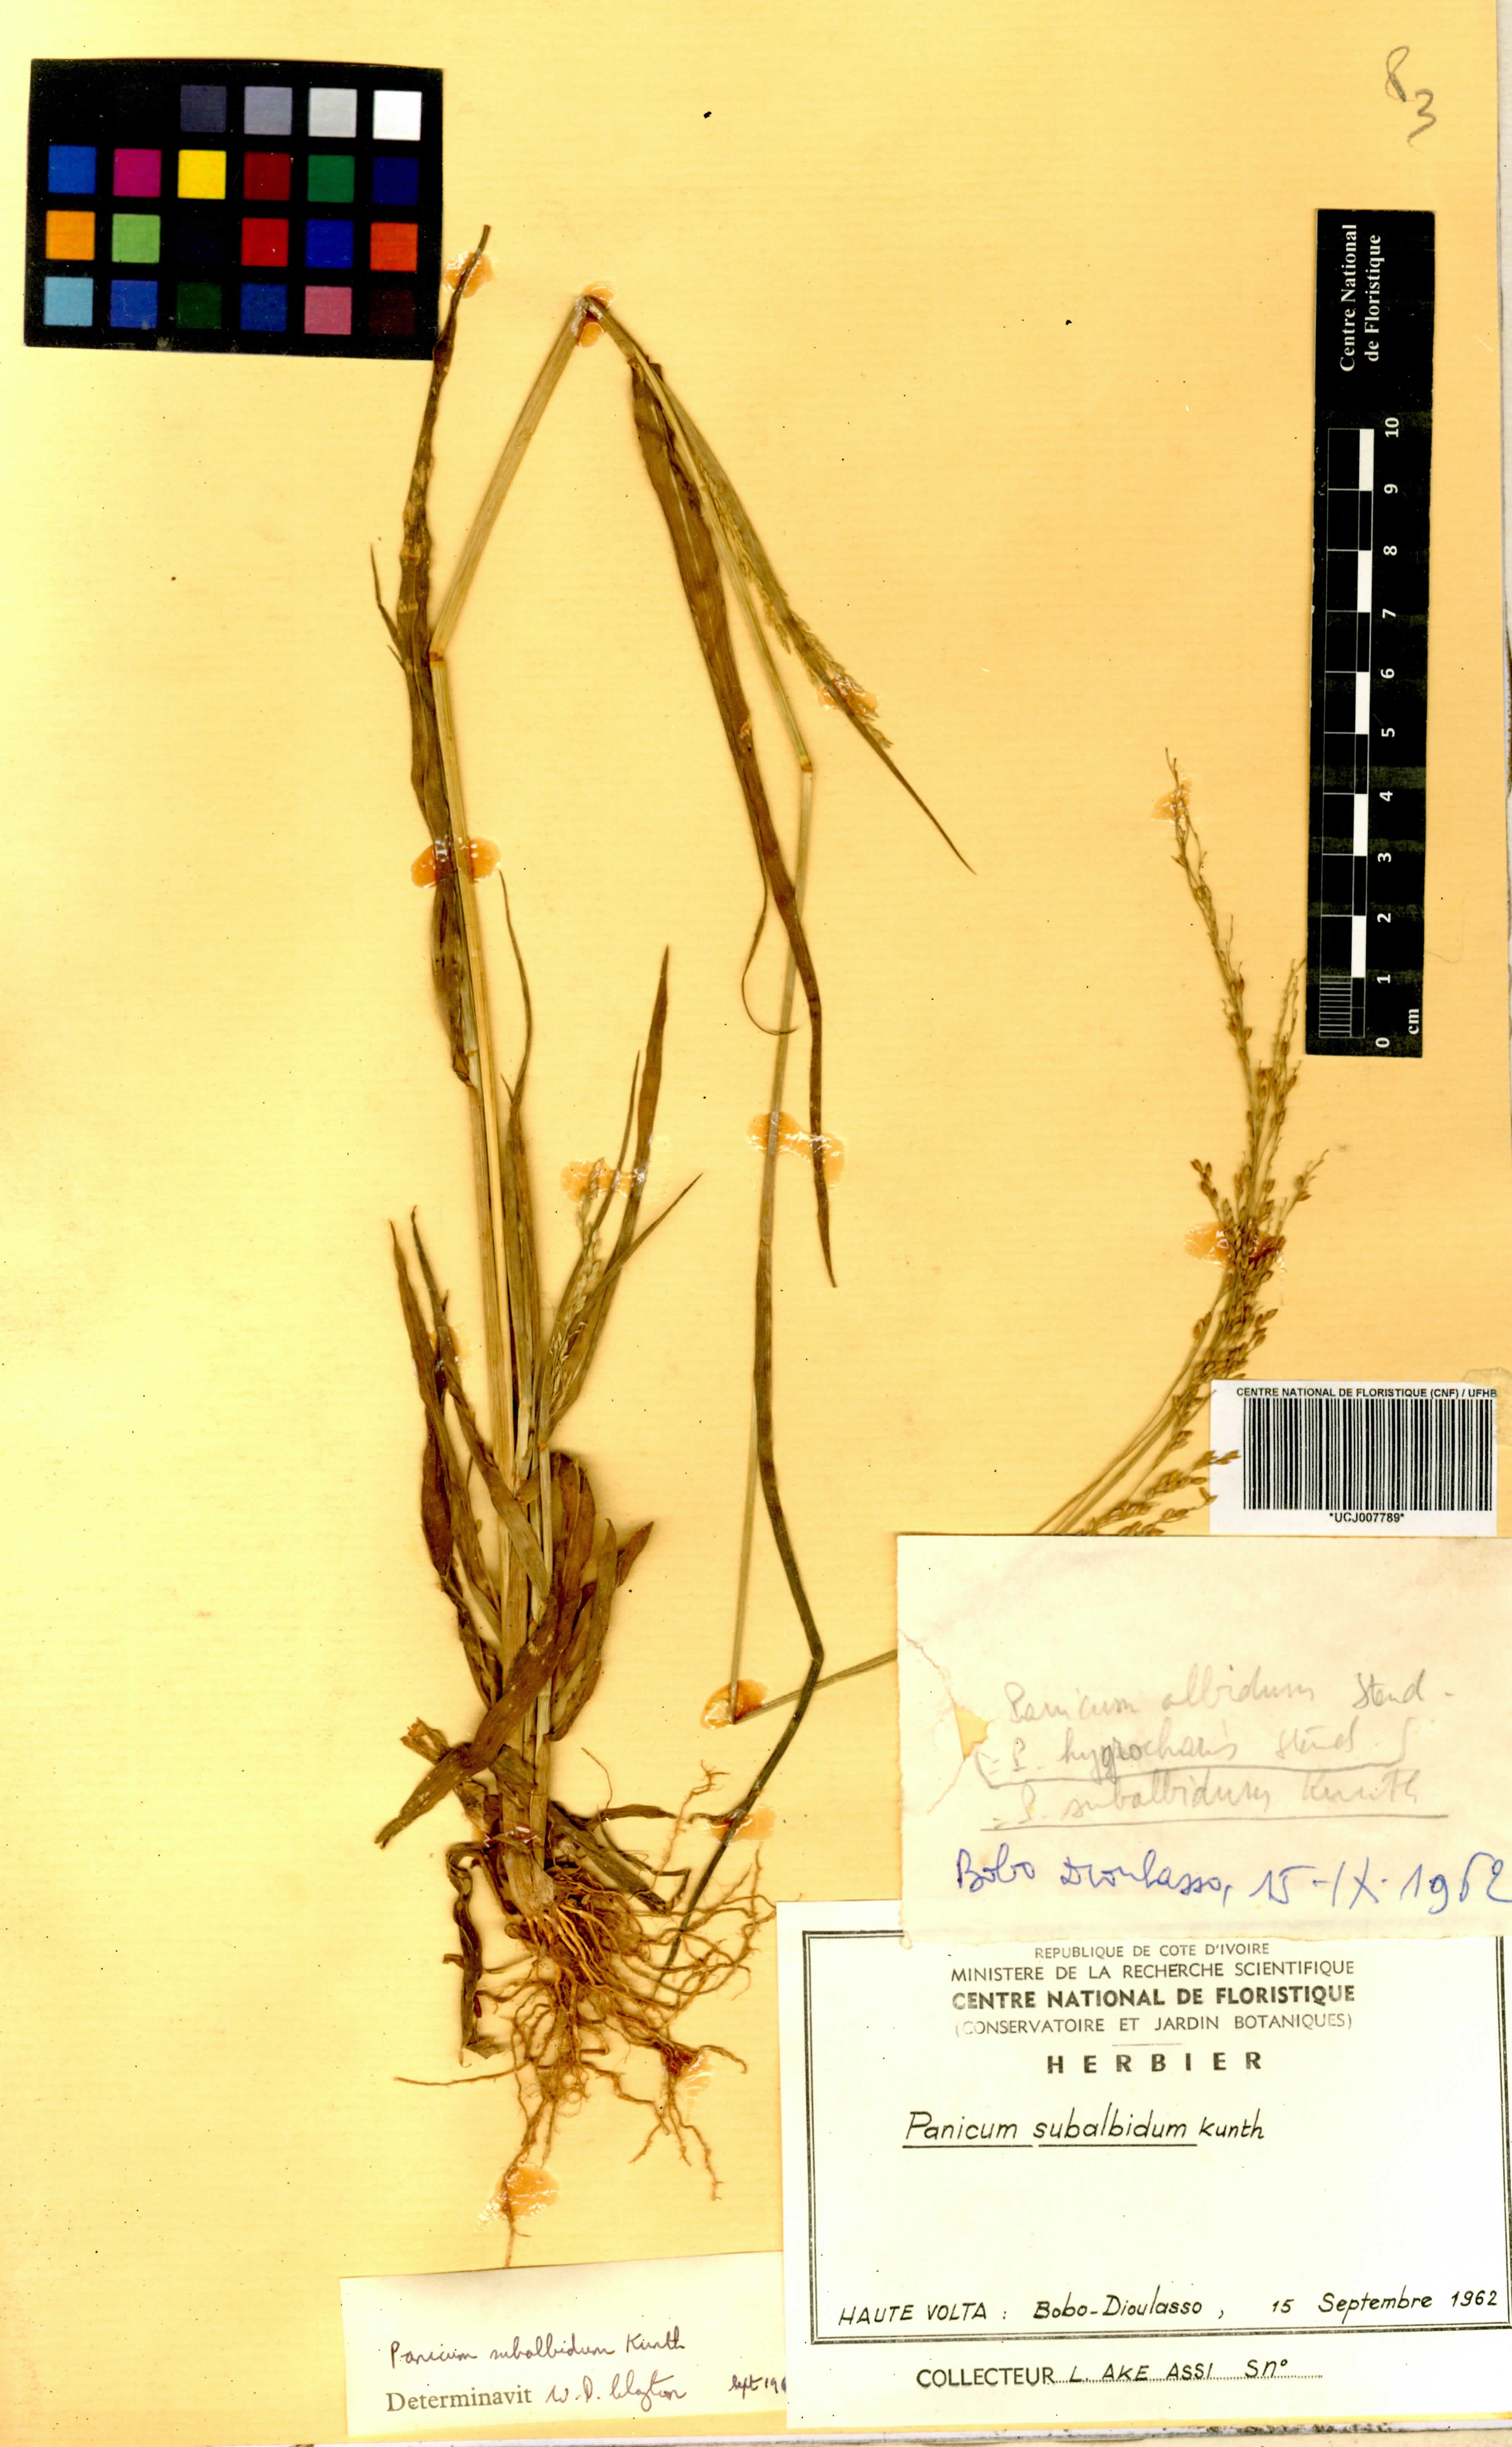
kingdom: Plantae
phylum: Tracheophyta
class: Liliopsida
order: Poales
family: Poaceae
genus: Panicum
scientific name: Panicum subalbidum
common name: Elbow buffalo grass
